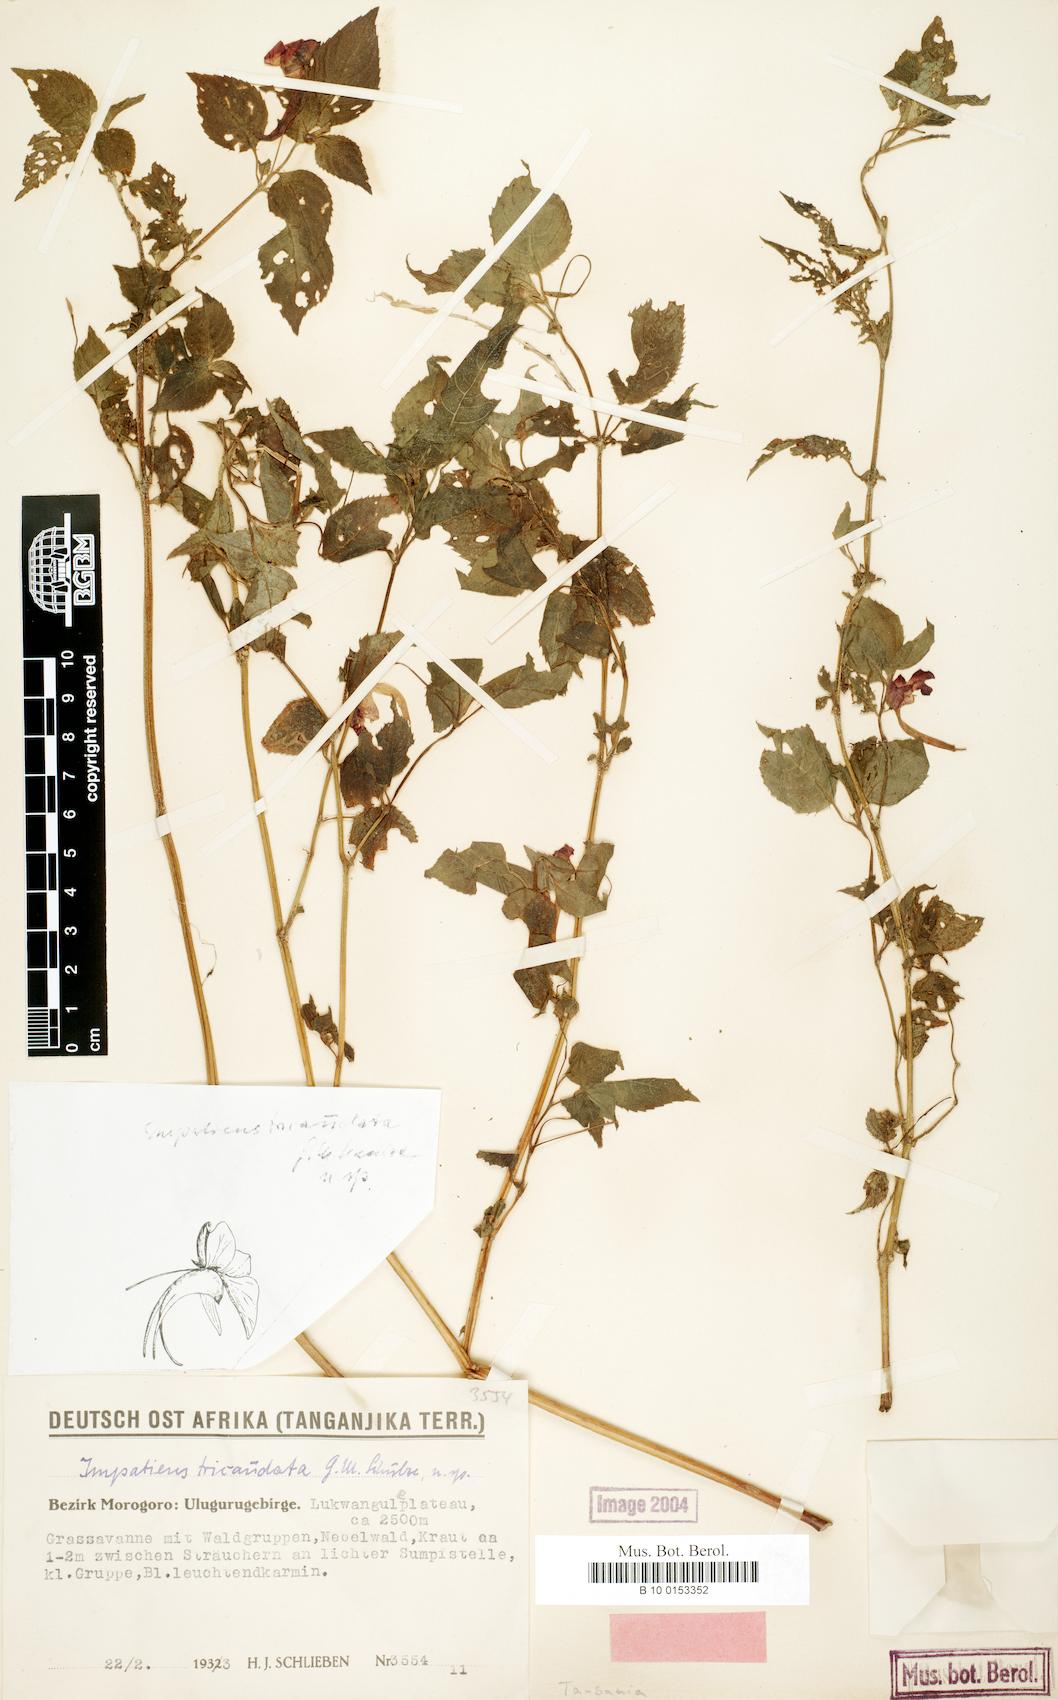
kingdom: Plantae
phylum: Tracheophyta
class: Magnoliopsida
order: Ericales
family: Balsaminaceae
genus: Impatiens
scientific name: Impatiens tricaudata
